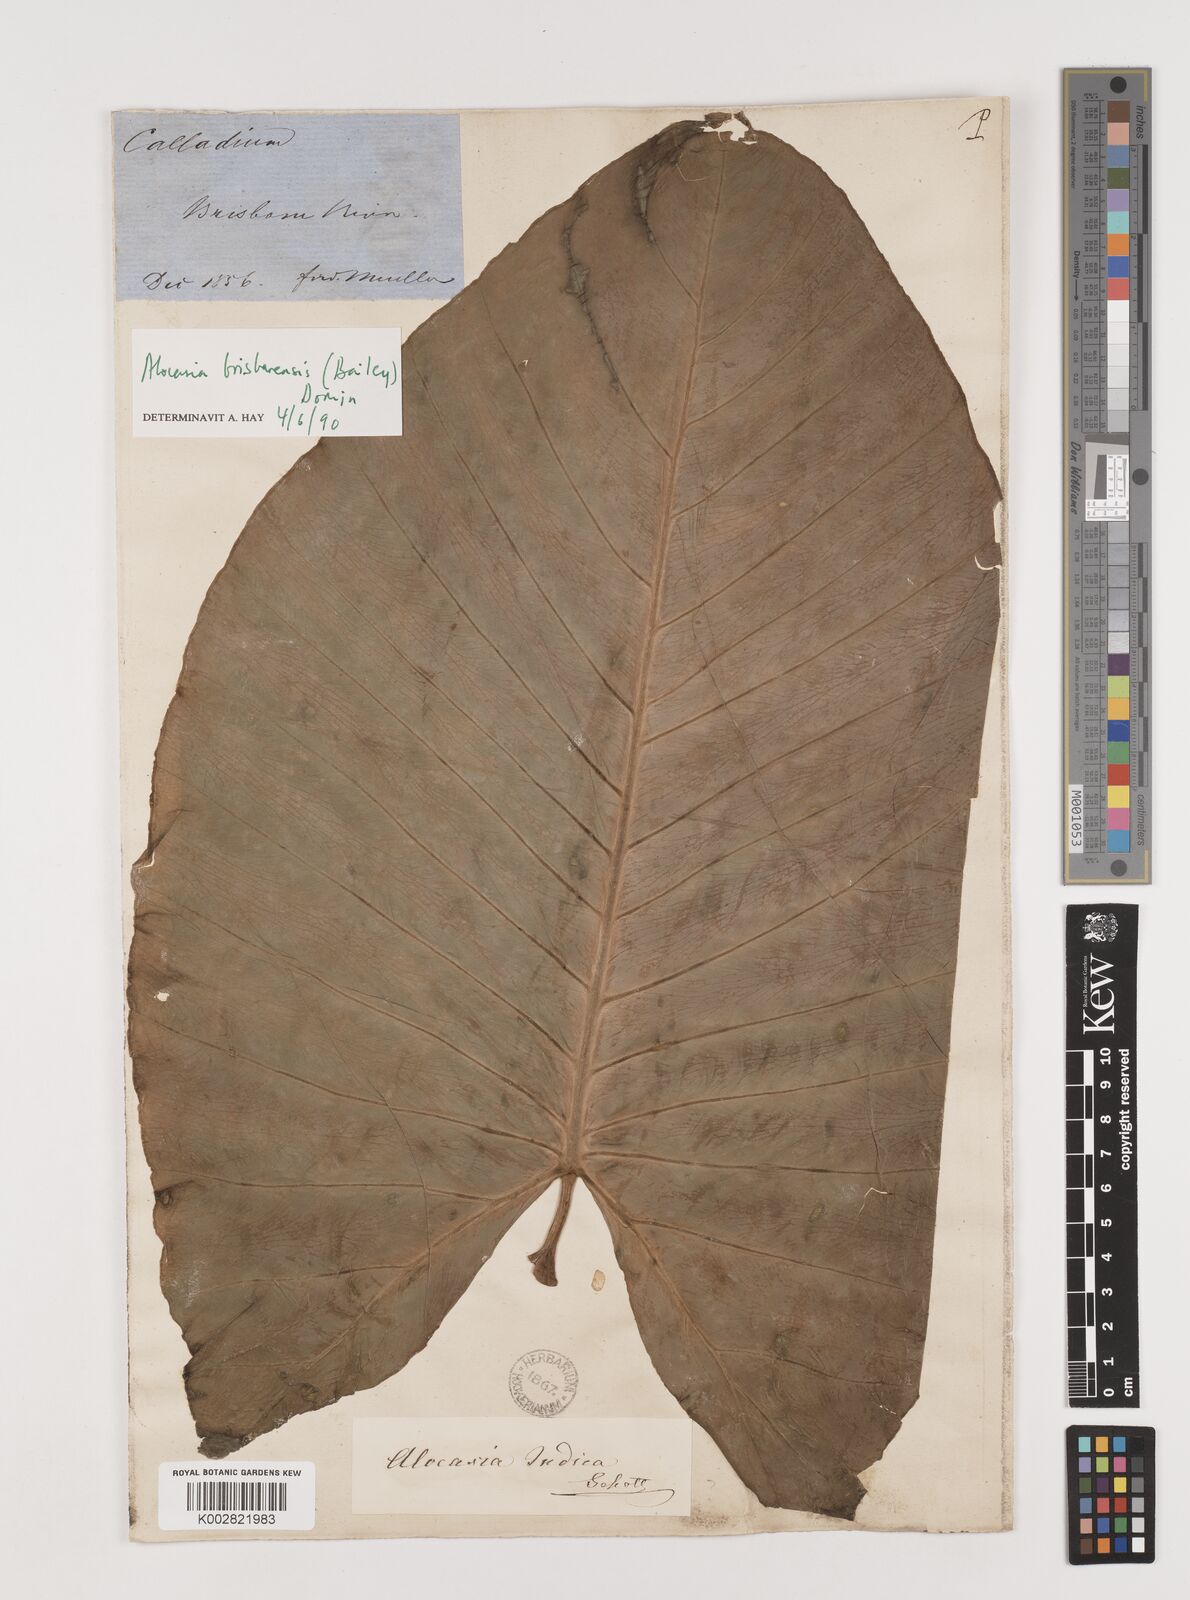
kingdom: Plantae
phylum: Tracheophyta
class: Liliopsida
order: Alismatales
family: Araceae
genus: Alocasia
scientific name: Alocasia brisbanensis
